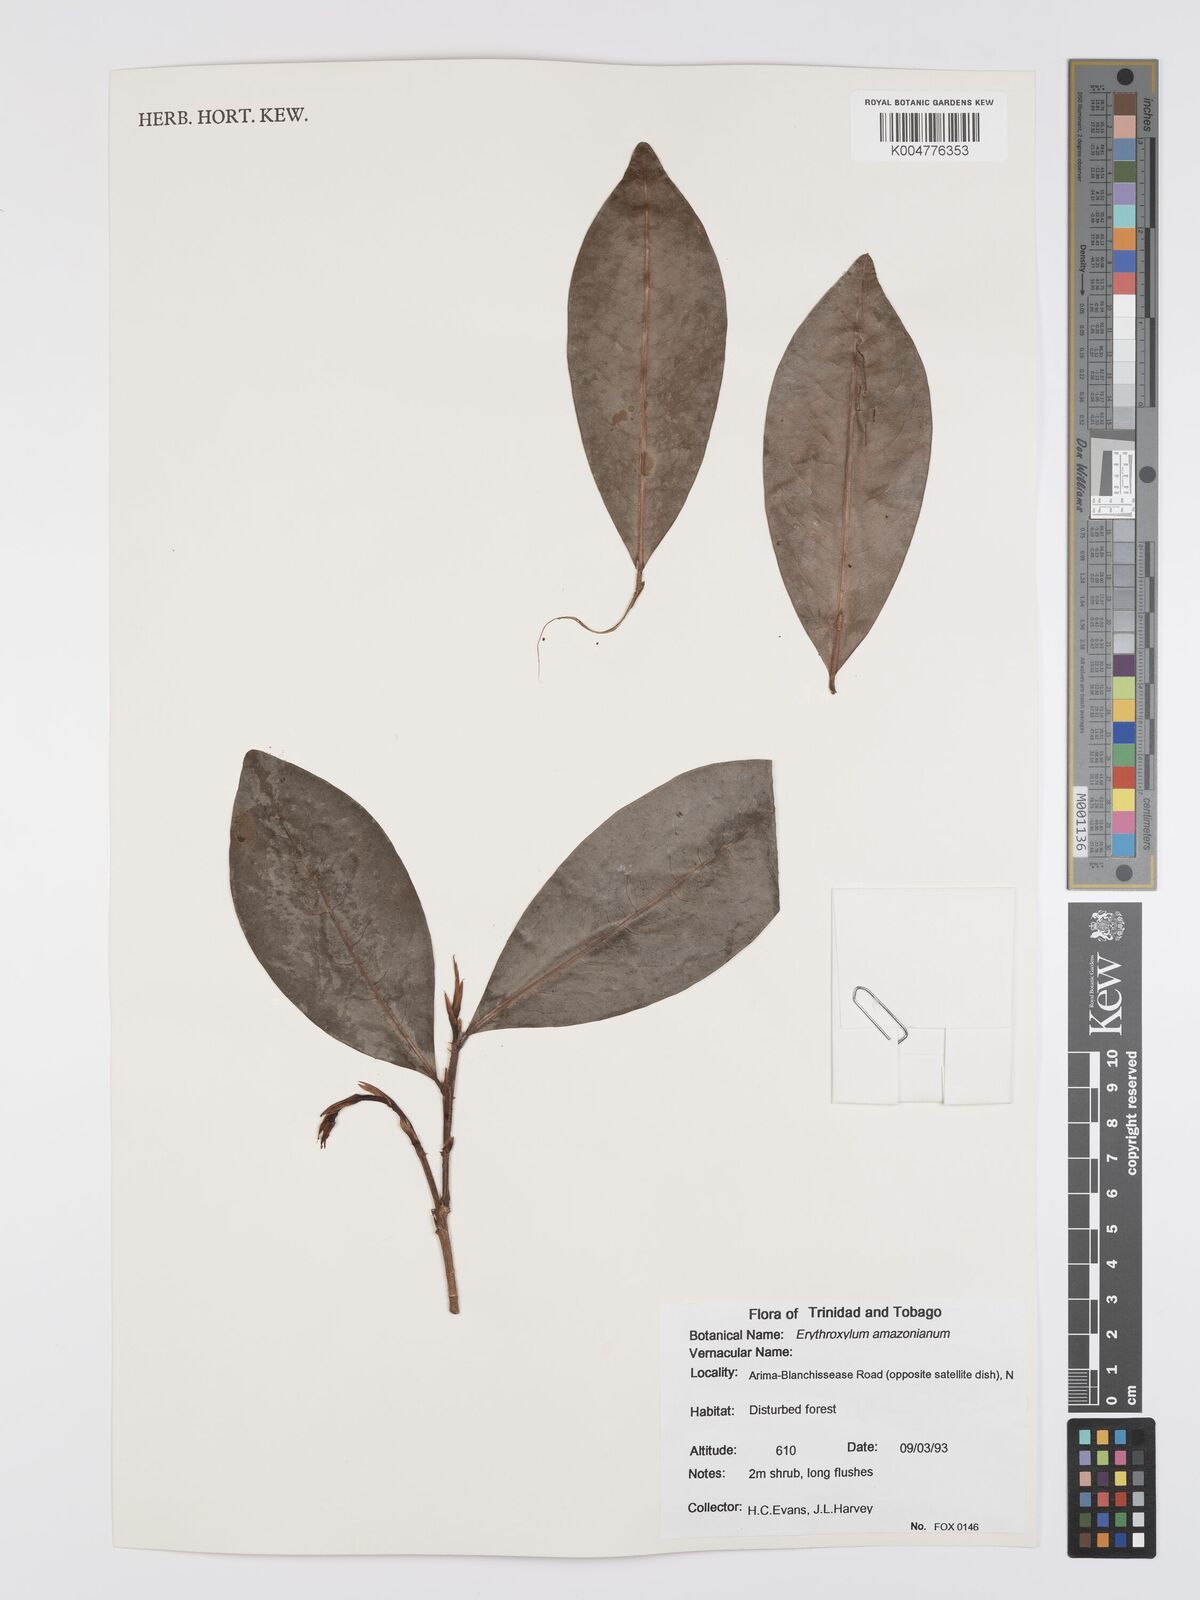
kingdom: Plantae
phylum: Tracheophyta
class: Magnoliopsida
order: Malpighiales
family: Erythroxylaceae
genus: Erythroxylum
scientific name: Erythroxylum amazonicum
